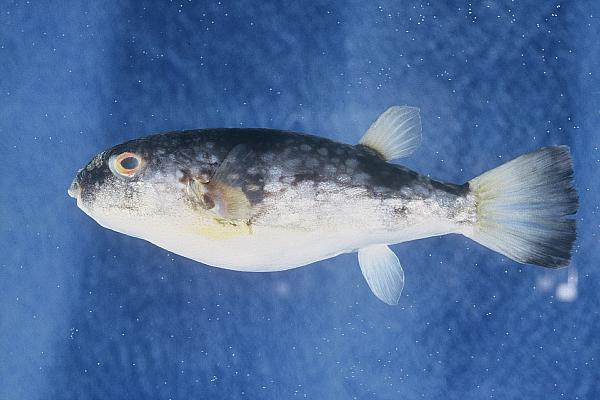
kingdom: Animalia
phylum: Chordata
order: Tetraodontiformes
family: Tetraodontidae
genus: Chelonodon
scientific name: Chelonodon laticeps
